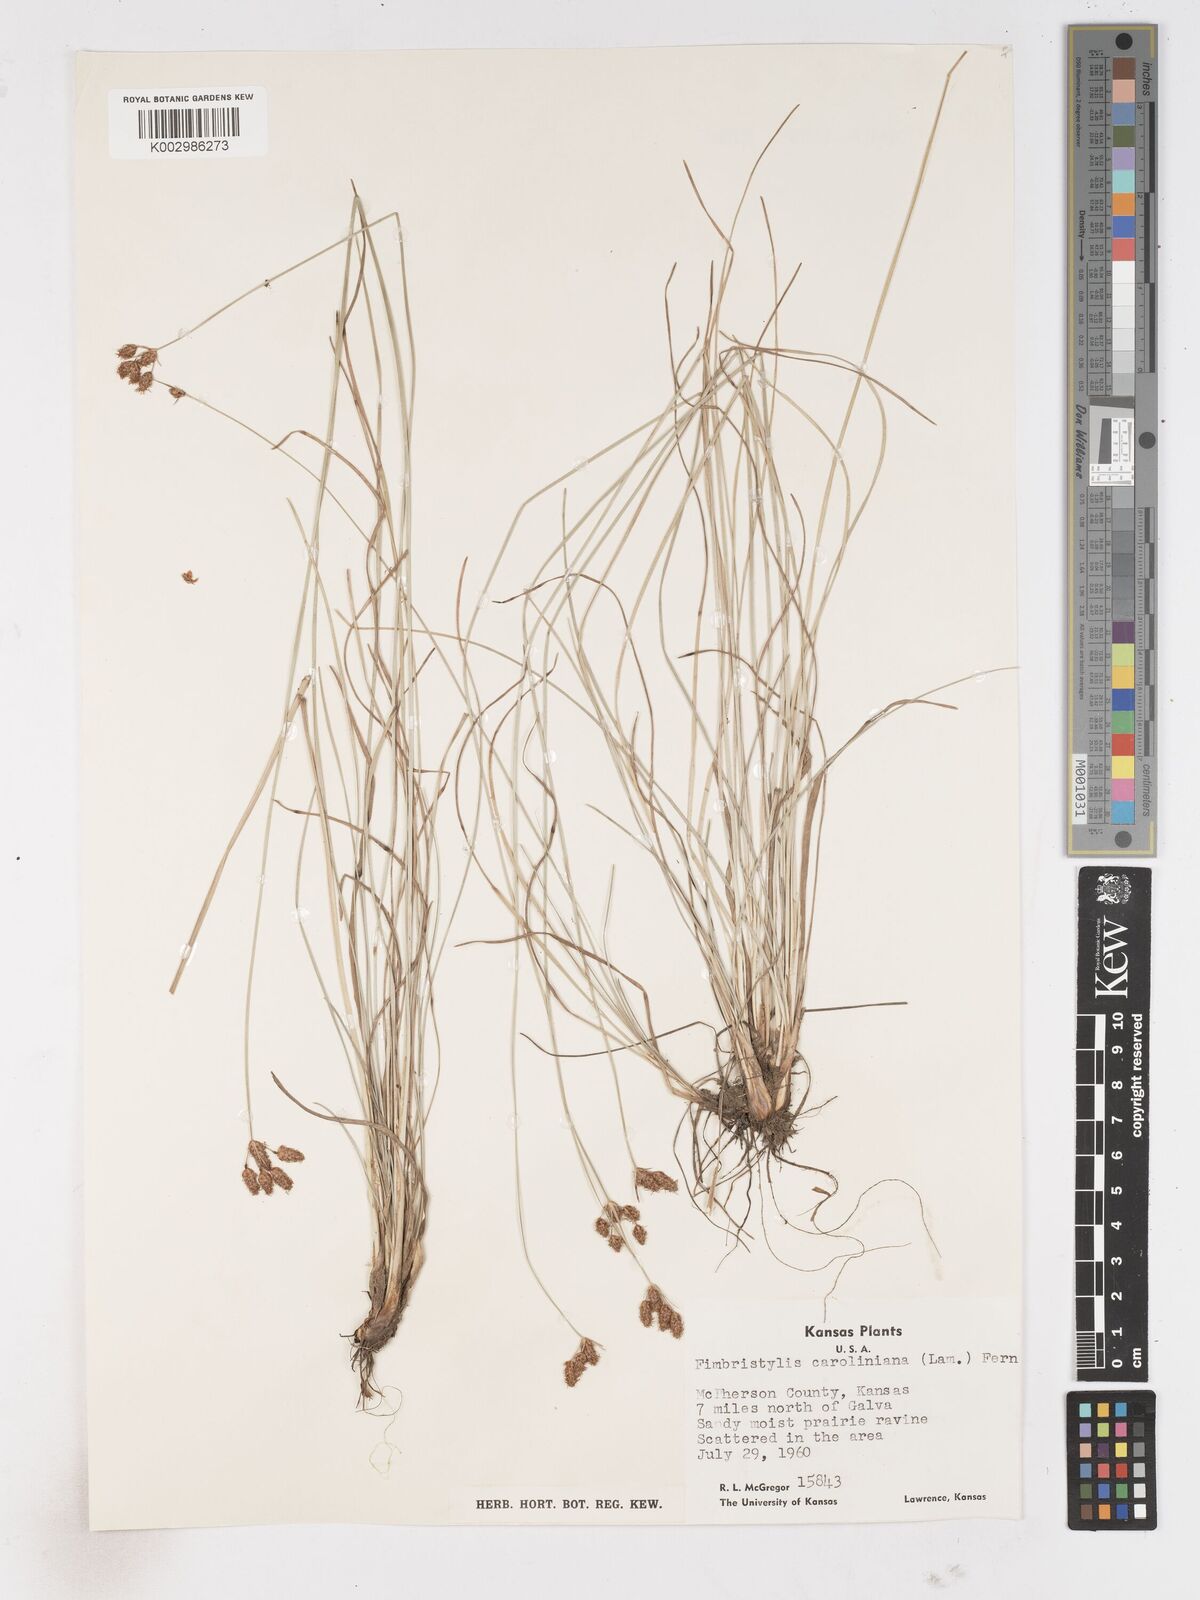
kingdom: Plantae
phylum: Tracheophyta
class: Liliopsida
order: Poales
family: Cyperaceae
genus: Fimbristylis
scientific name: Fimbristylis caroliniana
